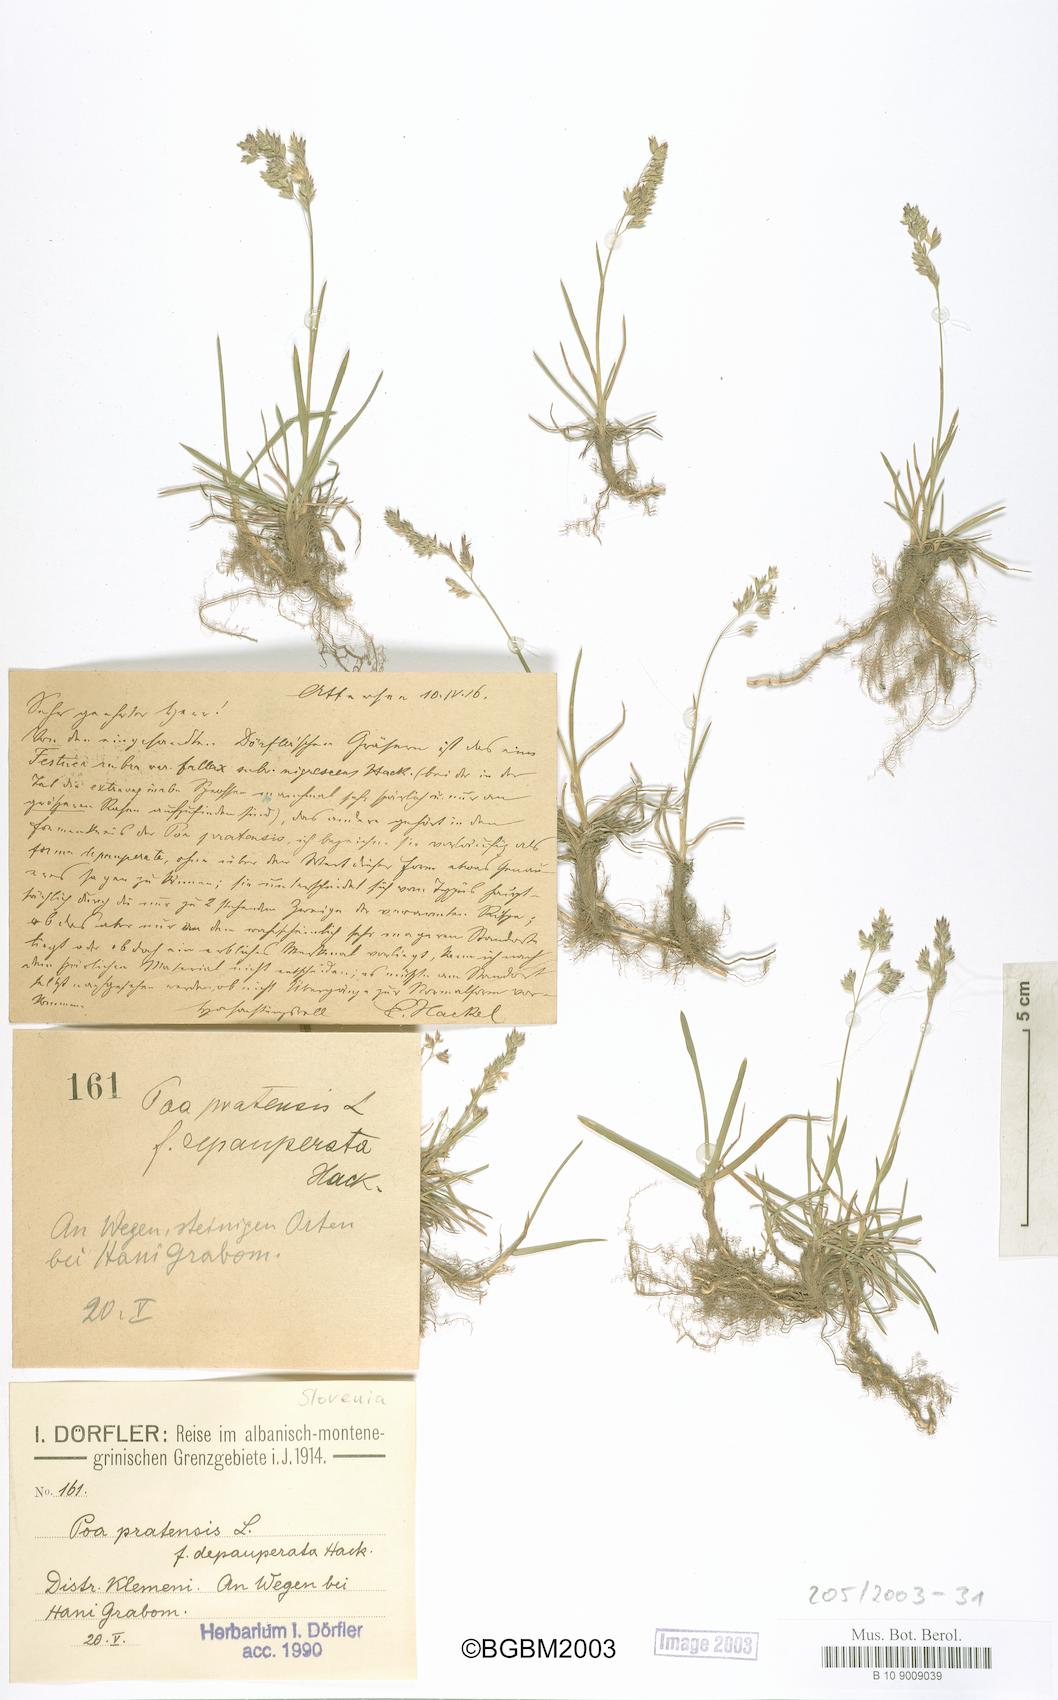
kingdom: Plantae
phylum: Tracheophyta
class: Liliopsida
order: Poales
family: Poaceae
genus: Poa
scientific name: Poa pratensis
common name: Kentucky bluegrass
